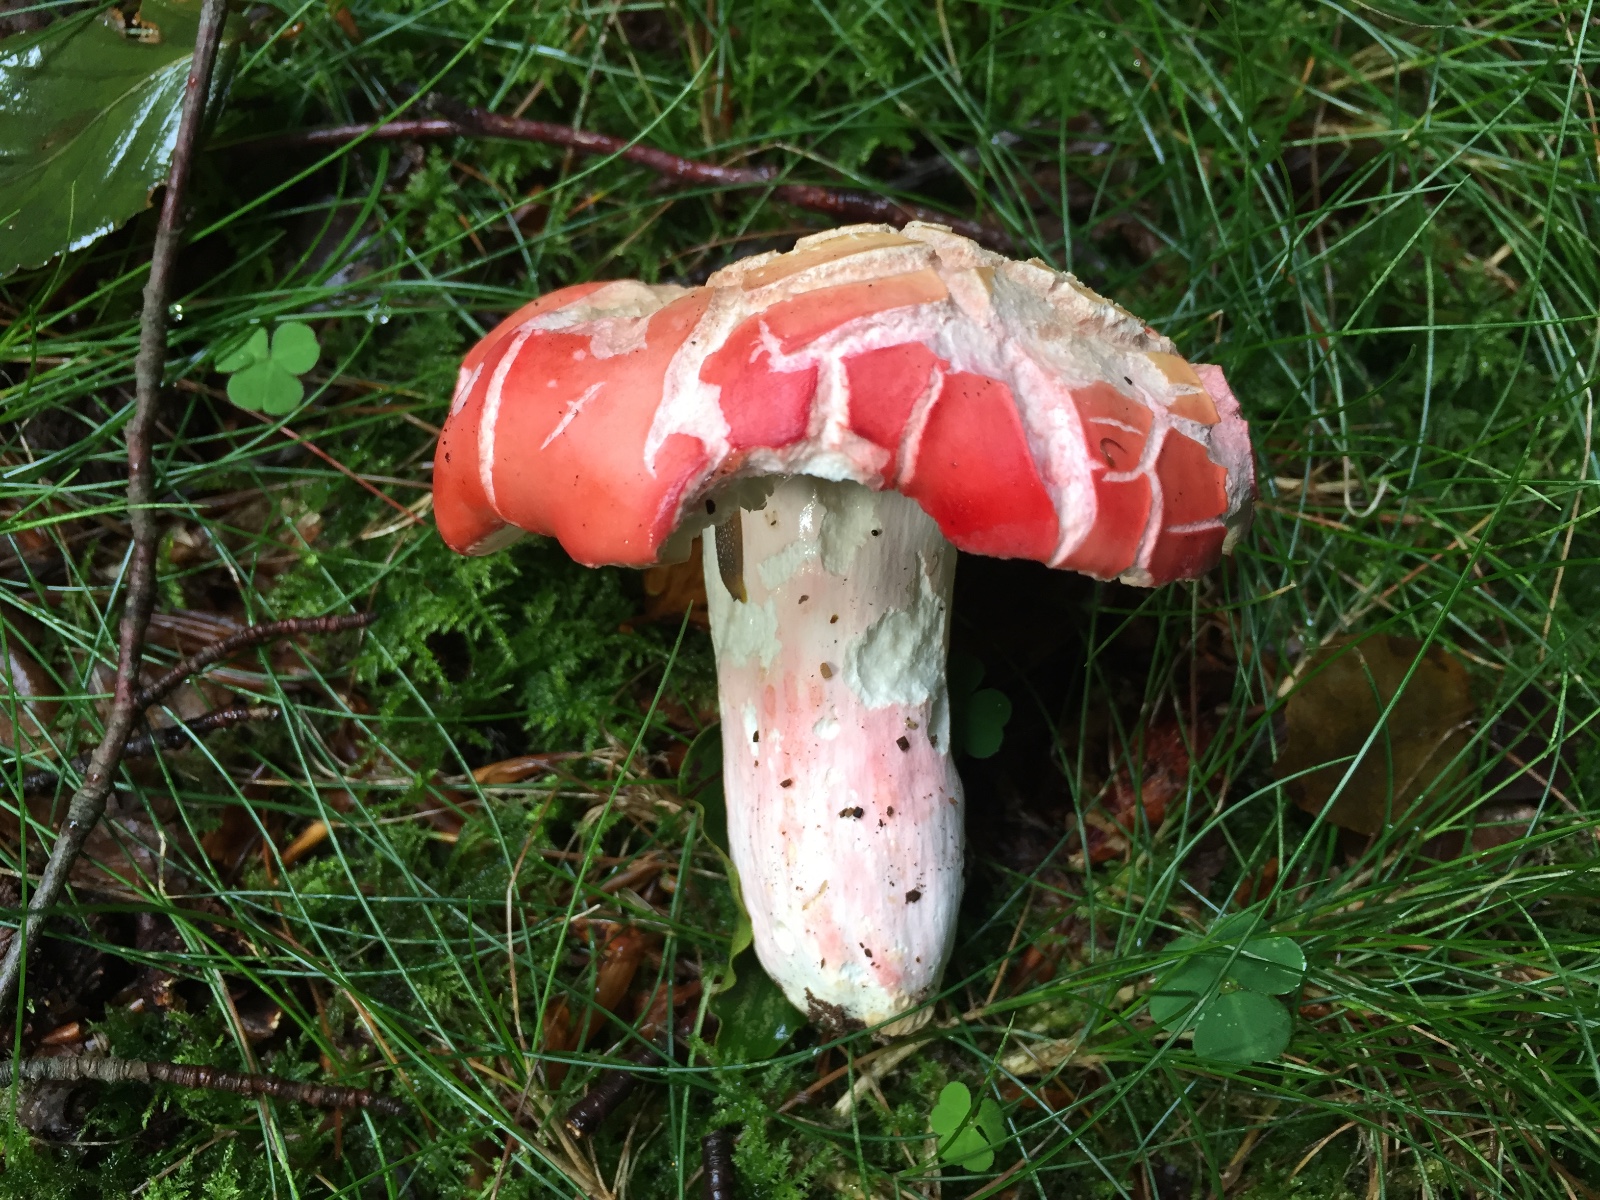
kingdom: Fungi
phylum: Basidiomycota
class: Agaricomycetes
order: Russulales
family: Russulaceae
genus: Russula
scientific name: Russula rosea
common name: fastkødet skørhat
